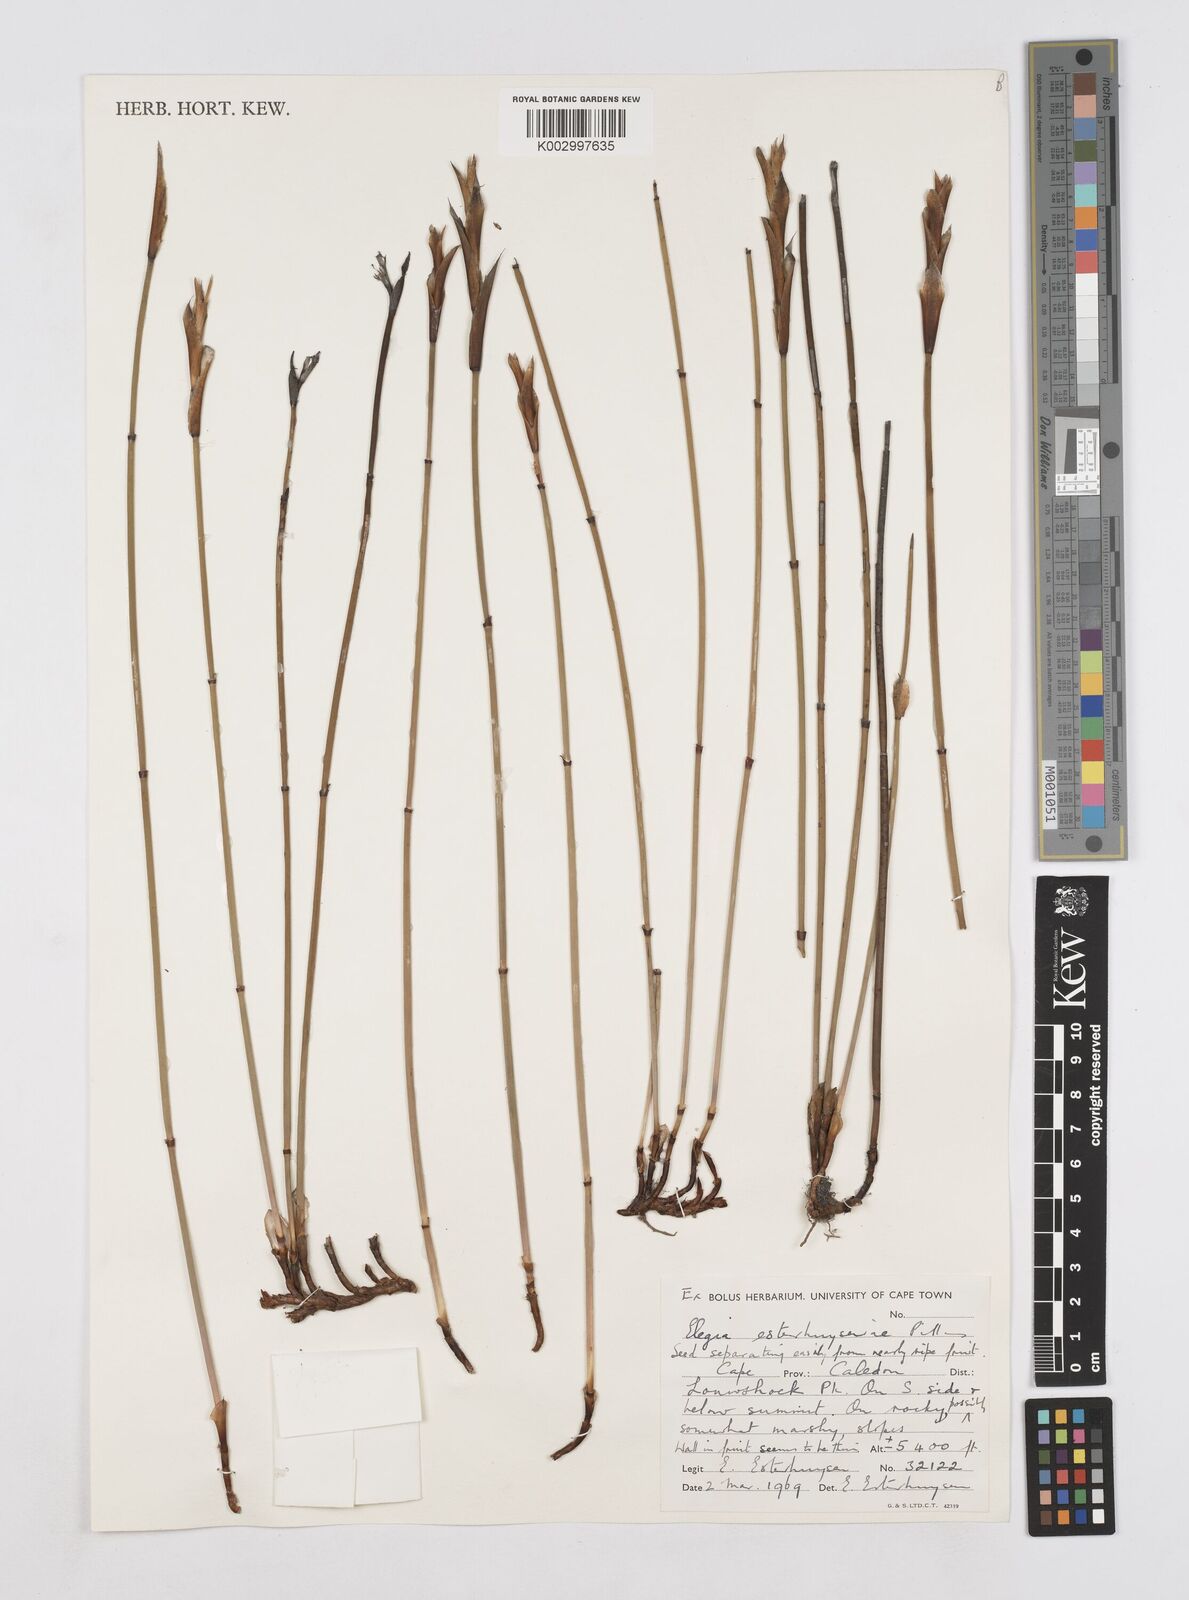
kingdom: Plantae
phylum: Tracheophyta
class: Liliopsida
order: Poales
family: Restionaceae
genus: Elegia
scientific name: Elegia esterhuyseniae
